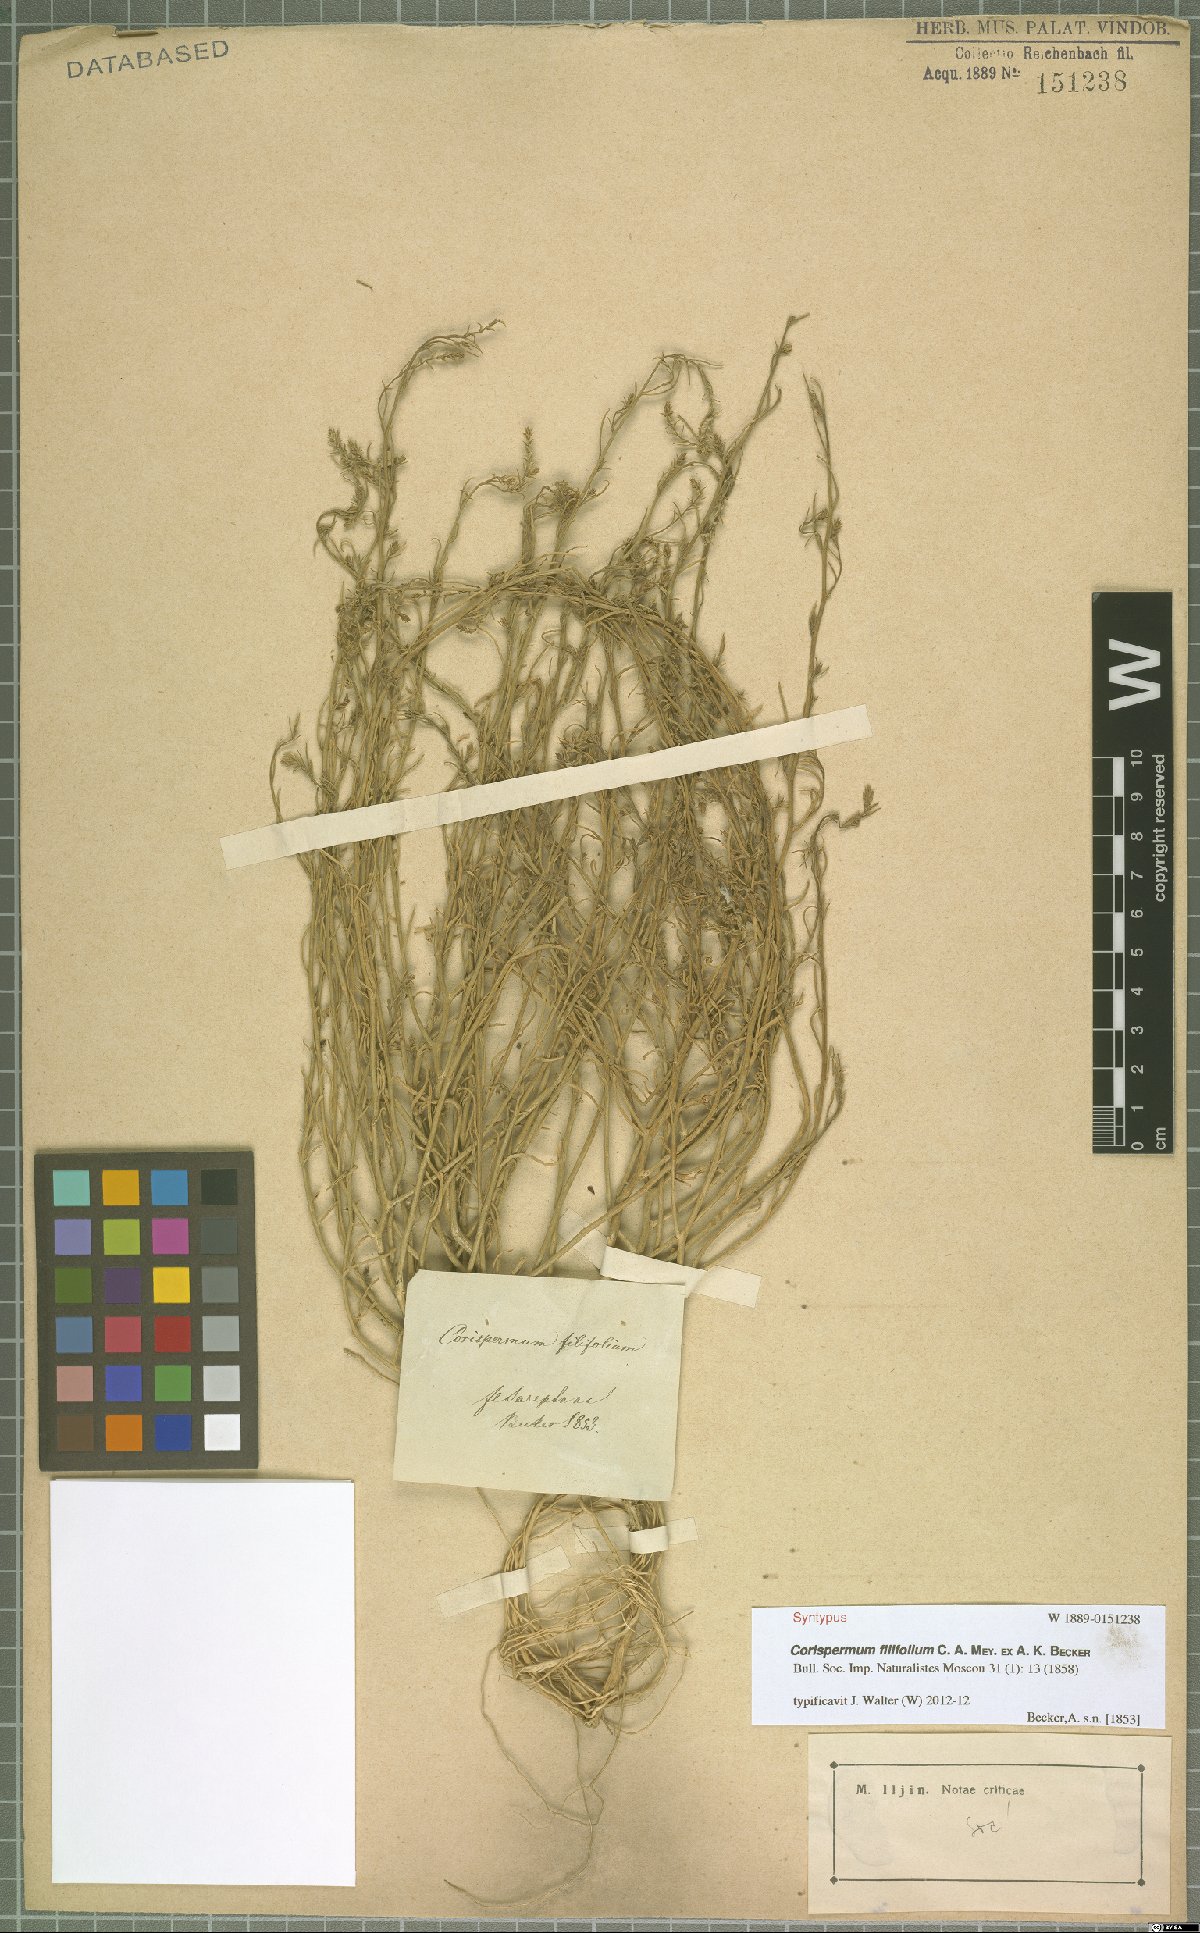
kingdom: Plantae
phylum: Tracheophyta
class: Magnoliopsida
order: Caryophyllales
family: Amaranthaceae
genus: Corispermum
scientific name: Corispermum filifolium
